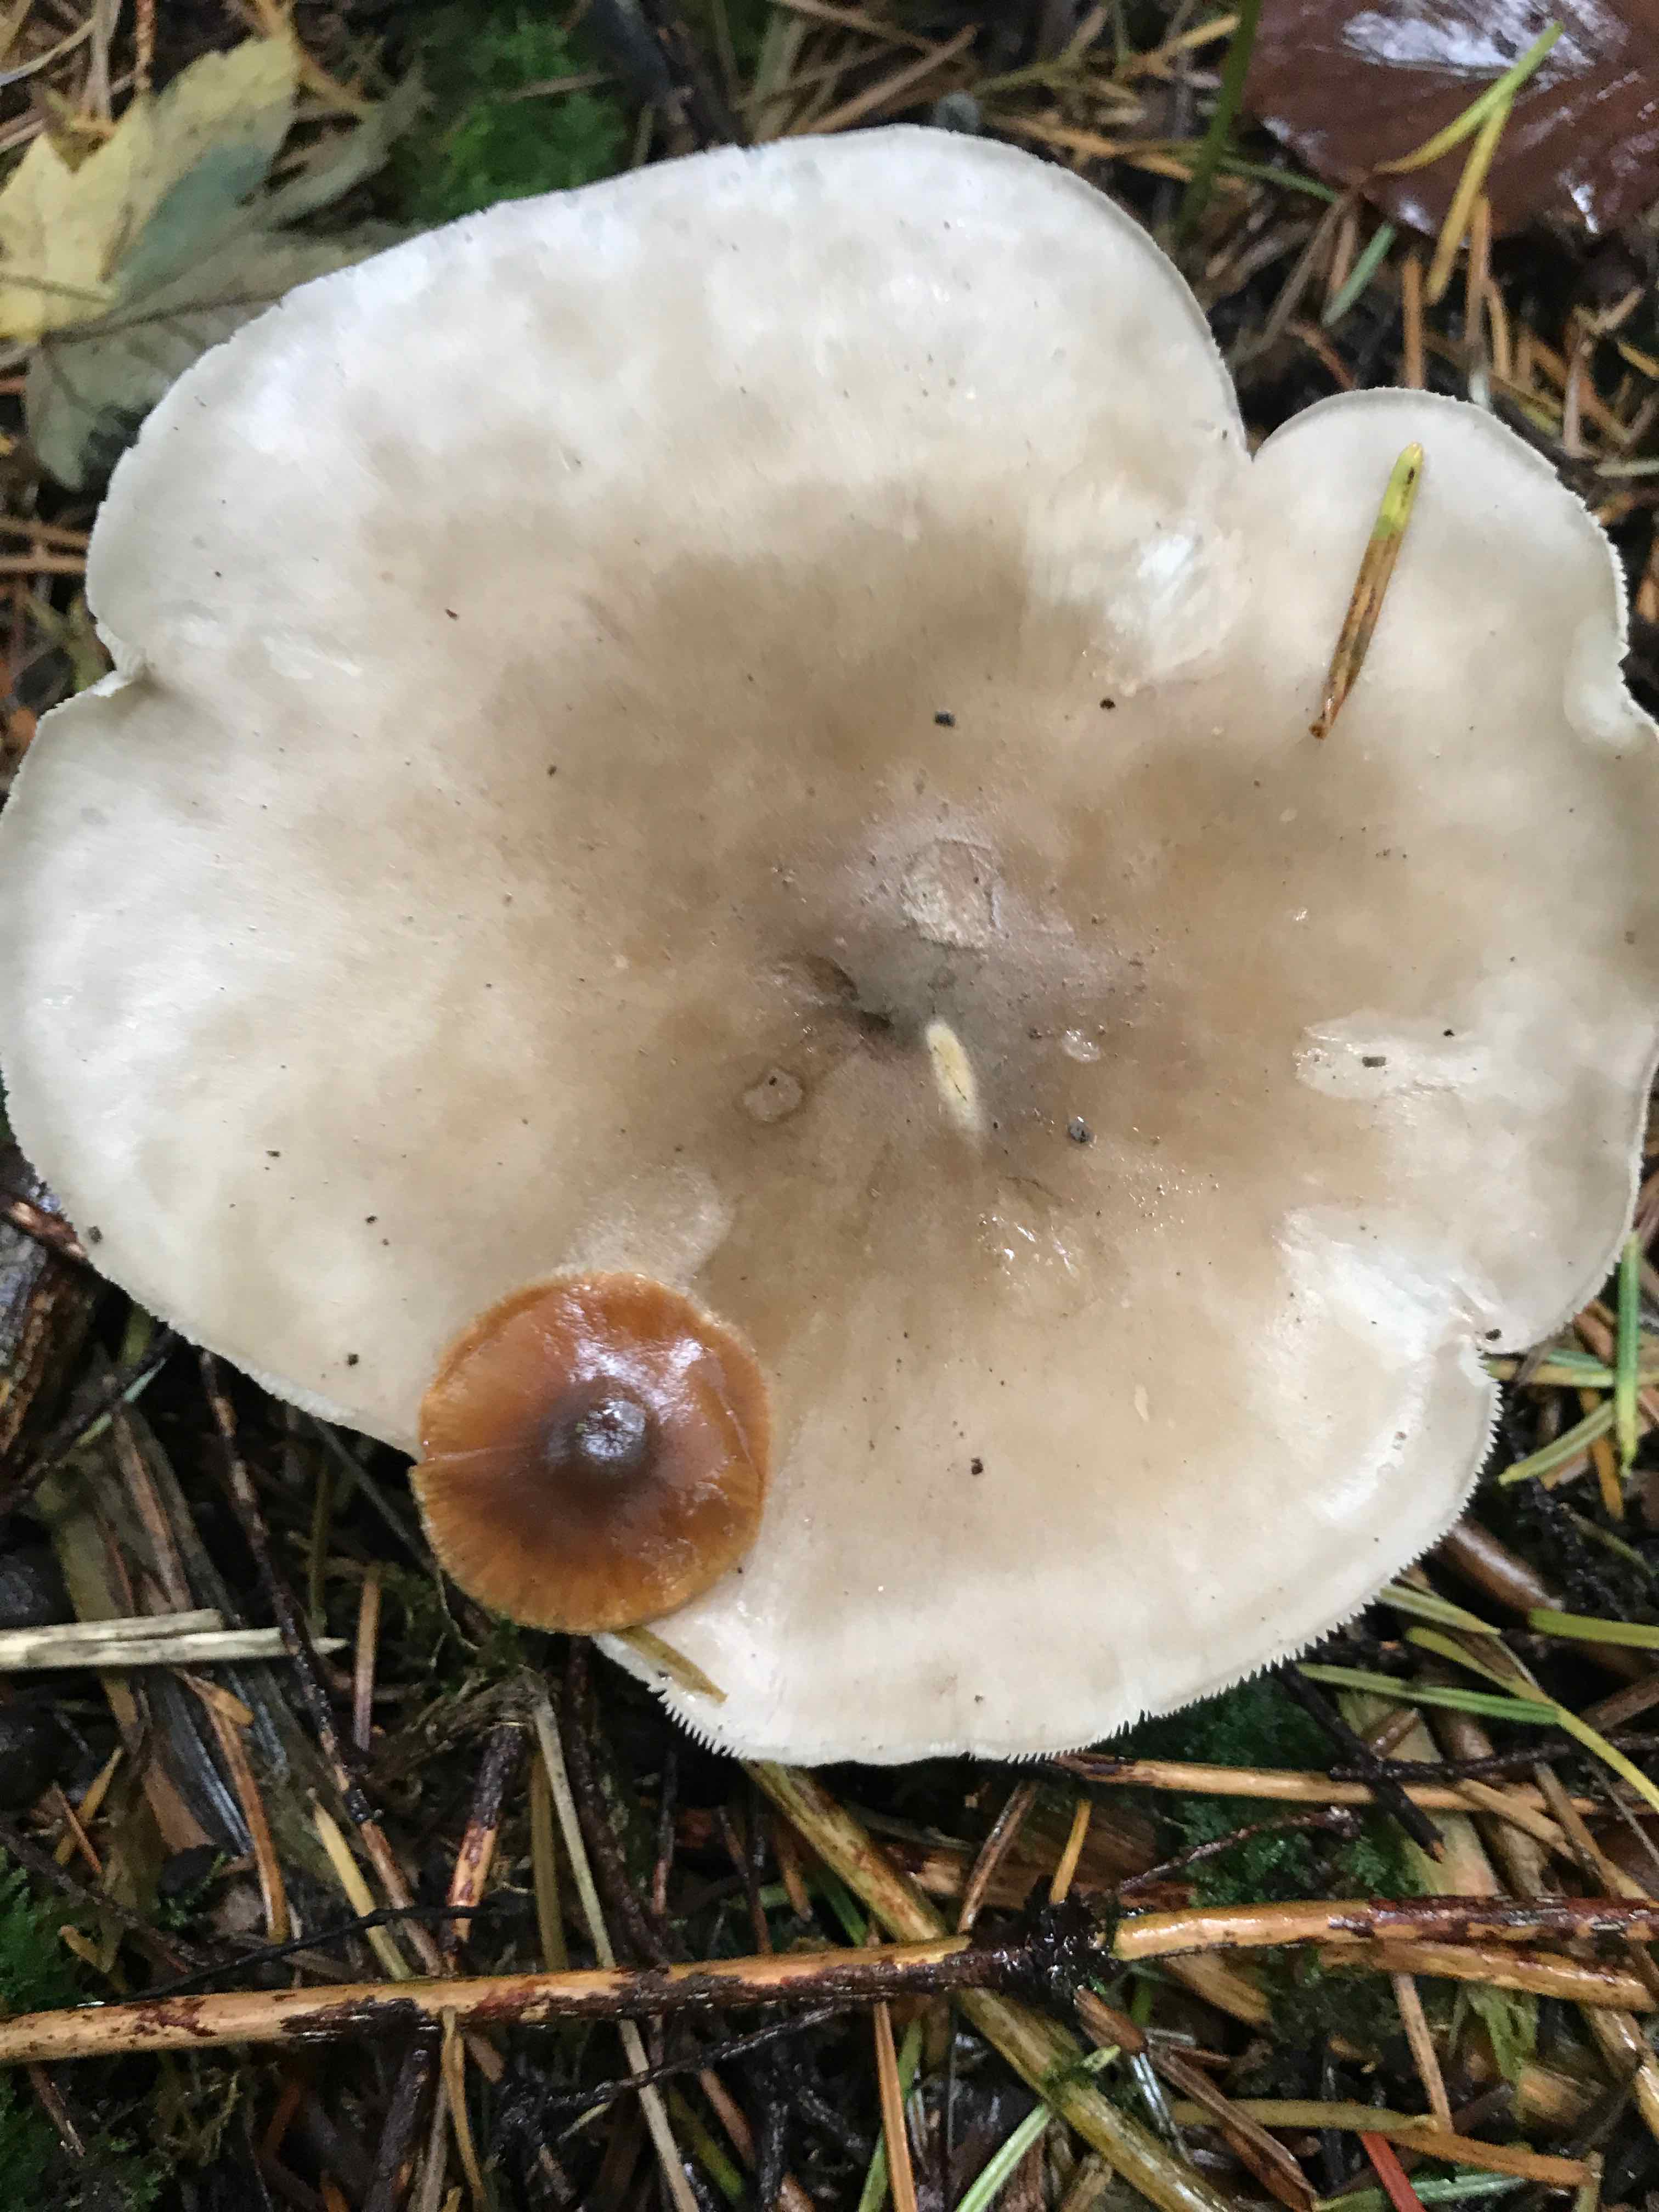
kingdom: Fungi
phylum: Basidiomycota
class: Agaricomycetes
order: Agaricales
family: Tricholomataceae
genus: Clitocybe
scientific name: Clitocybe nebularis
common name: tåge-tragthat
